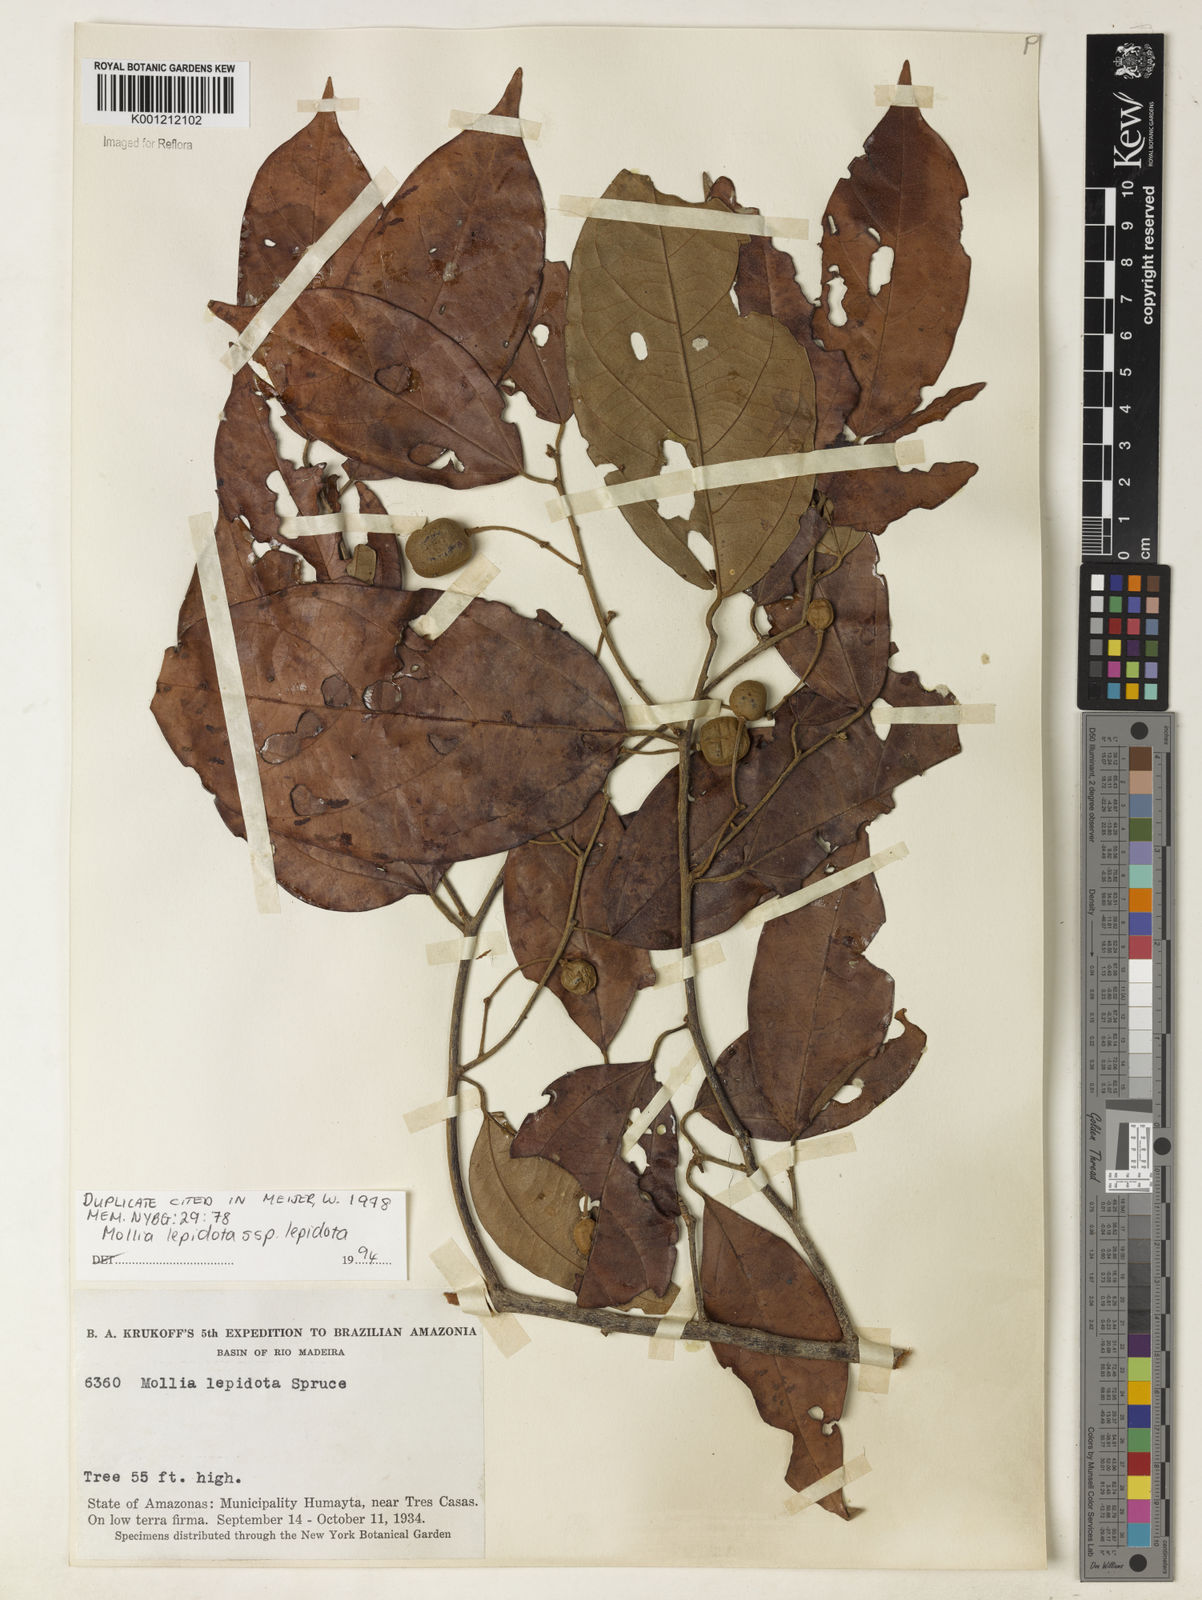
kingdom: Plantae
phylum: Tracheophyta
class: Magnoliopsida
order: Malvales
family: Malvaceae
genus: Mollia
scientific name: Mollia lepidota
